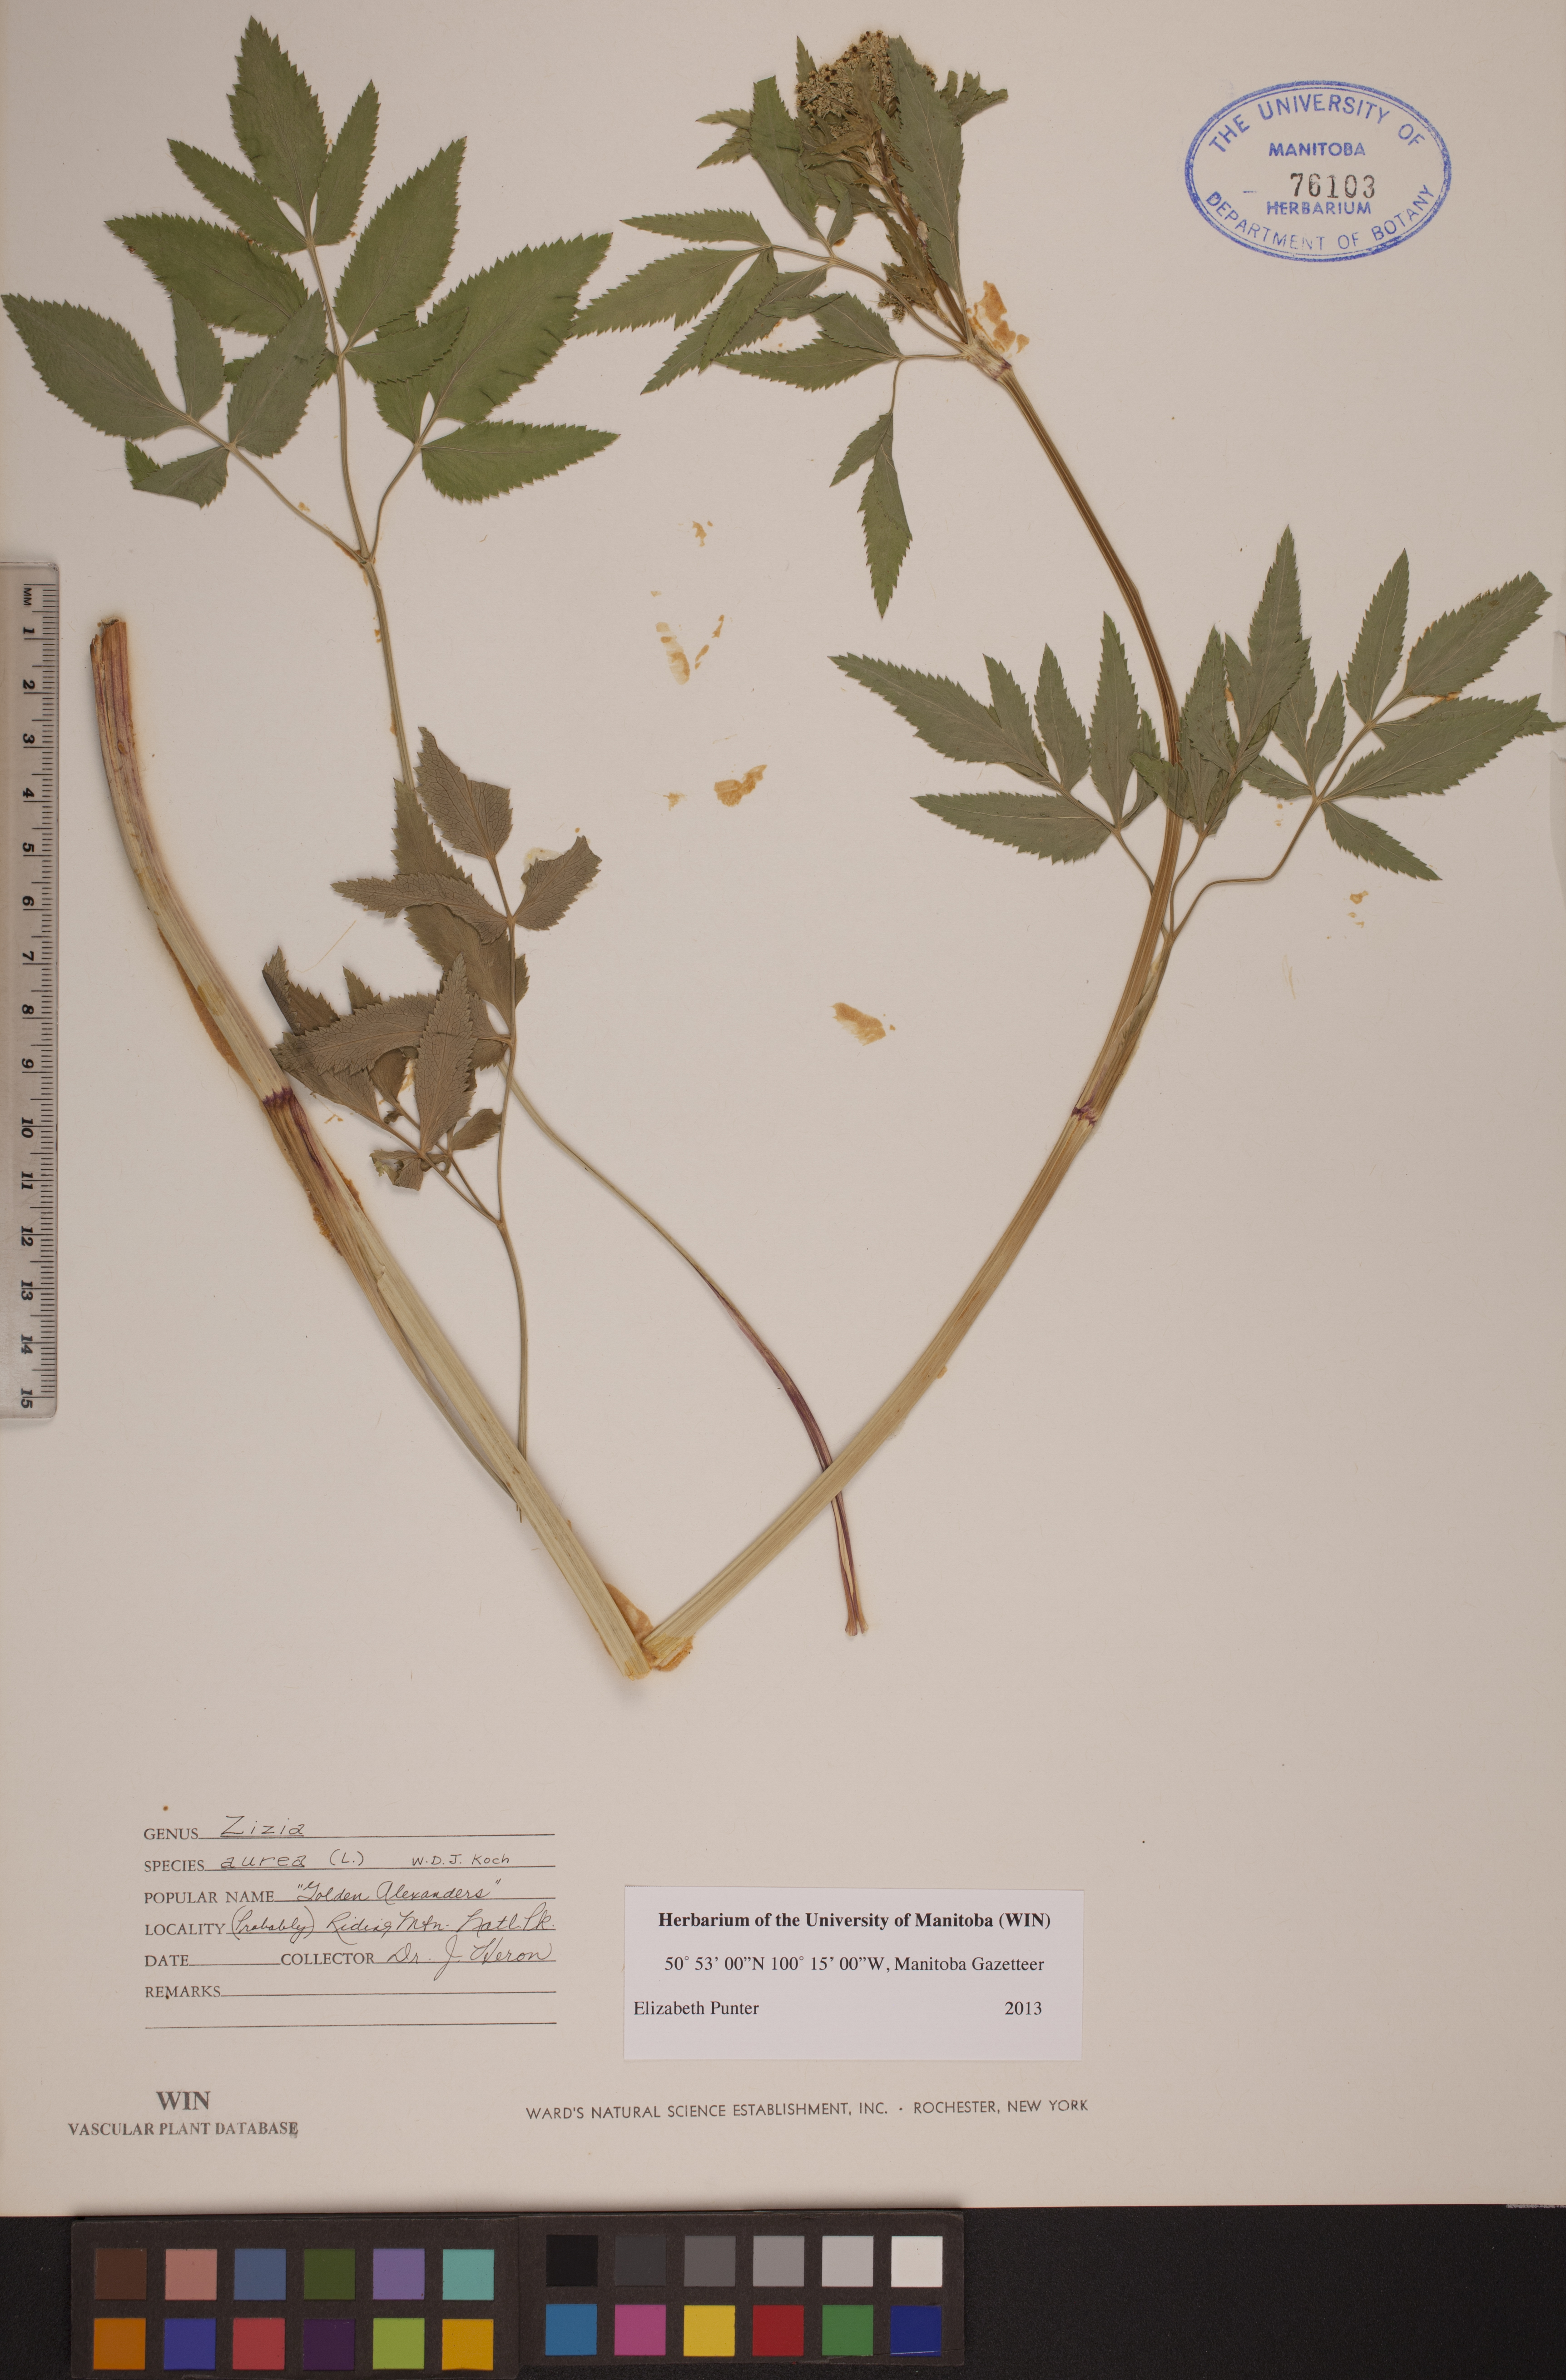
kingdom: Plantae
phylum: Tracheophyta
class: Magnoliopsida
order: Apiales
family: Apiaceae
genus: Zizia
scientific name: Zizia aurea
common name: Golden alexanders
